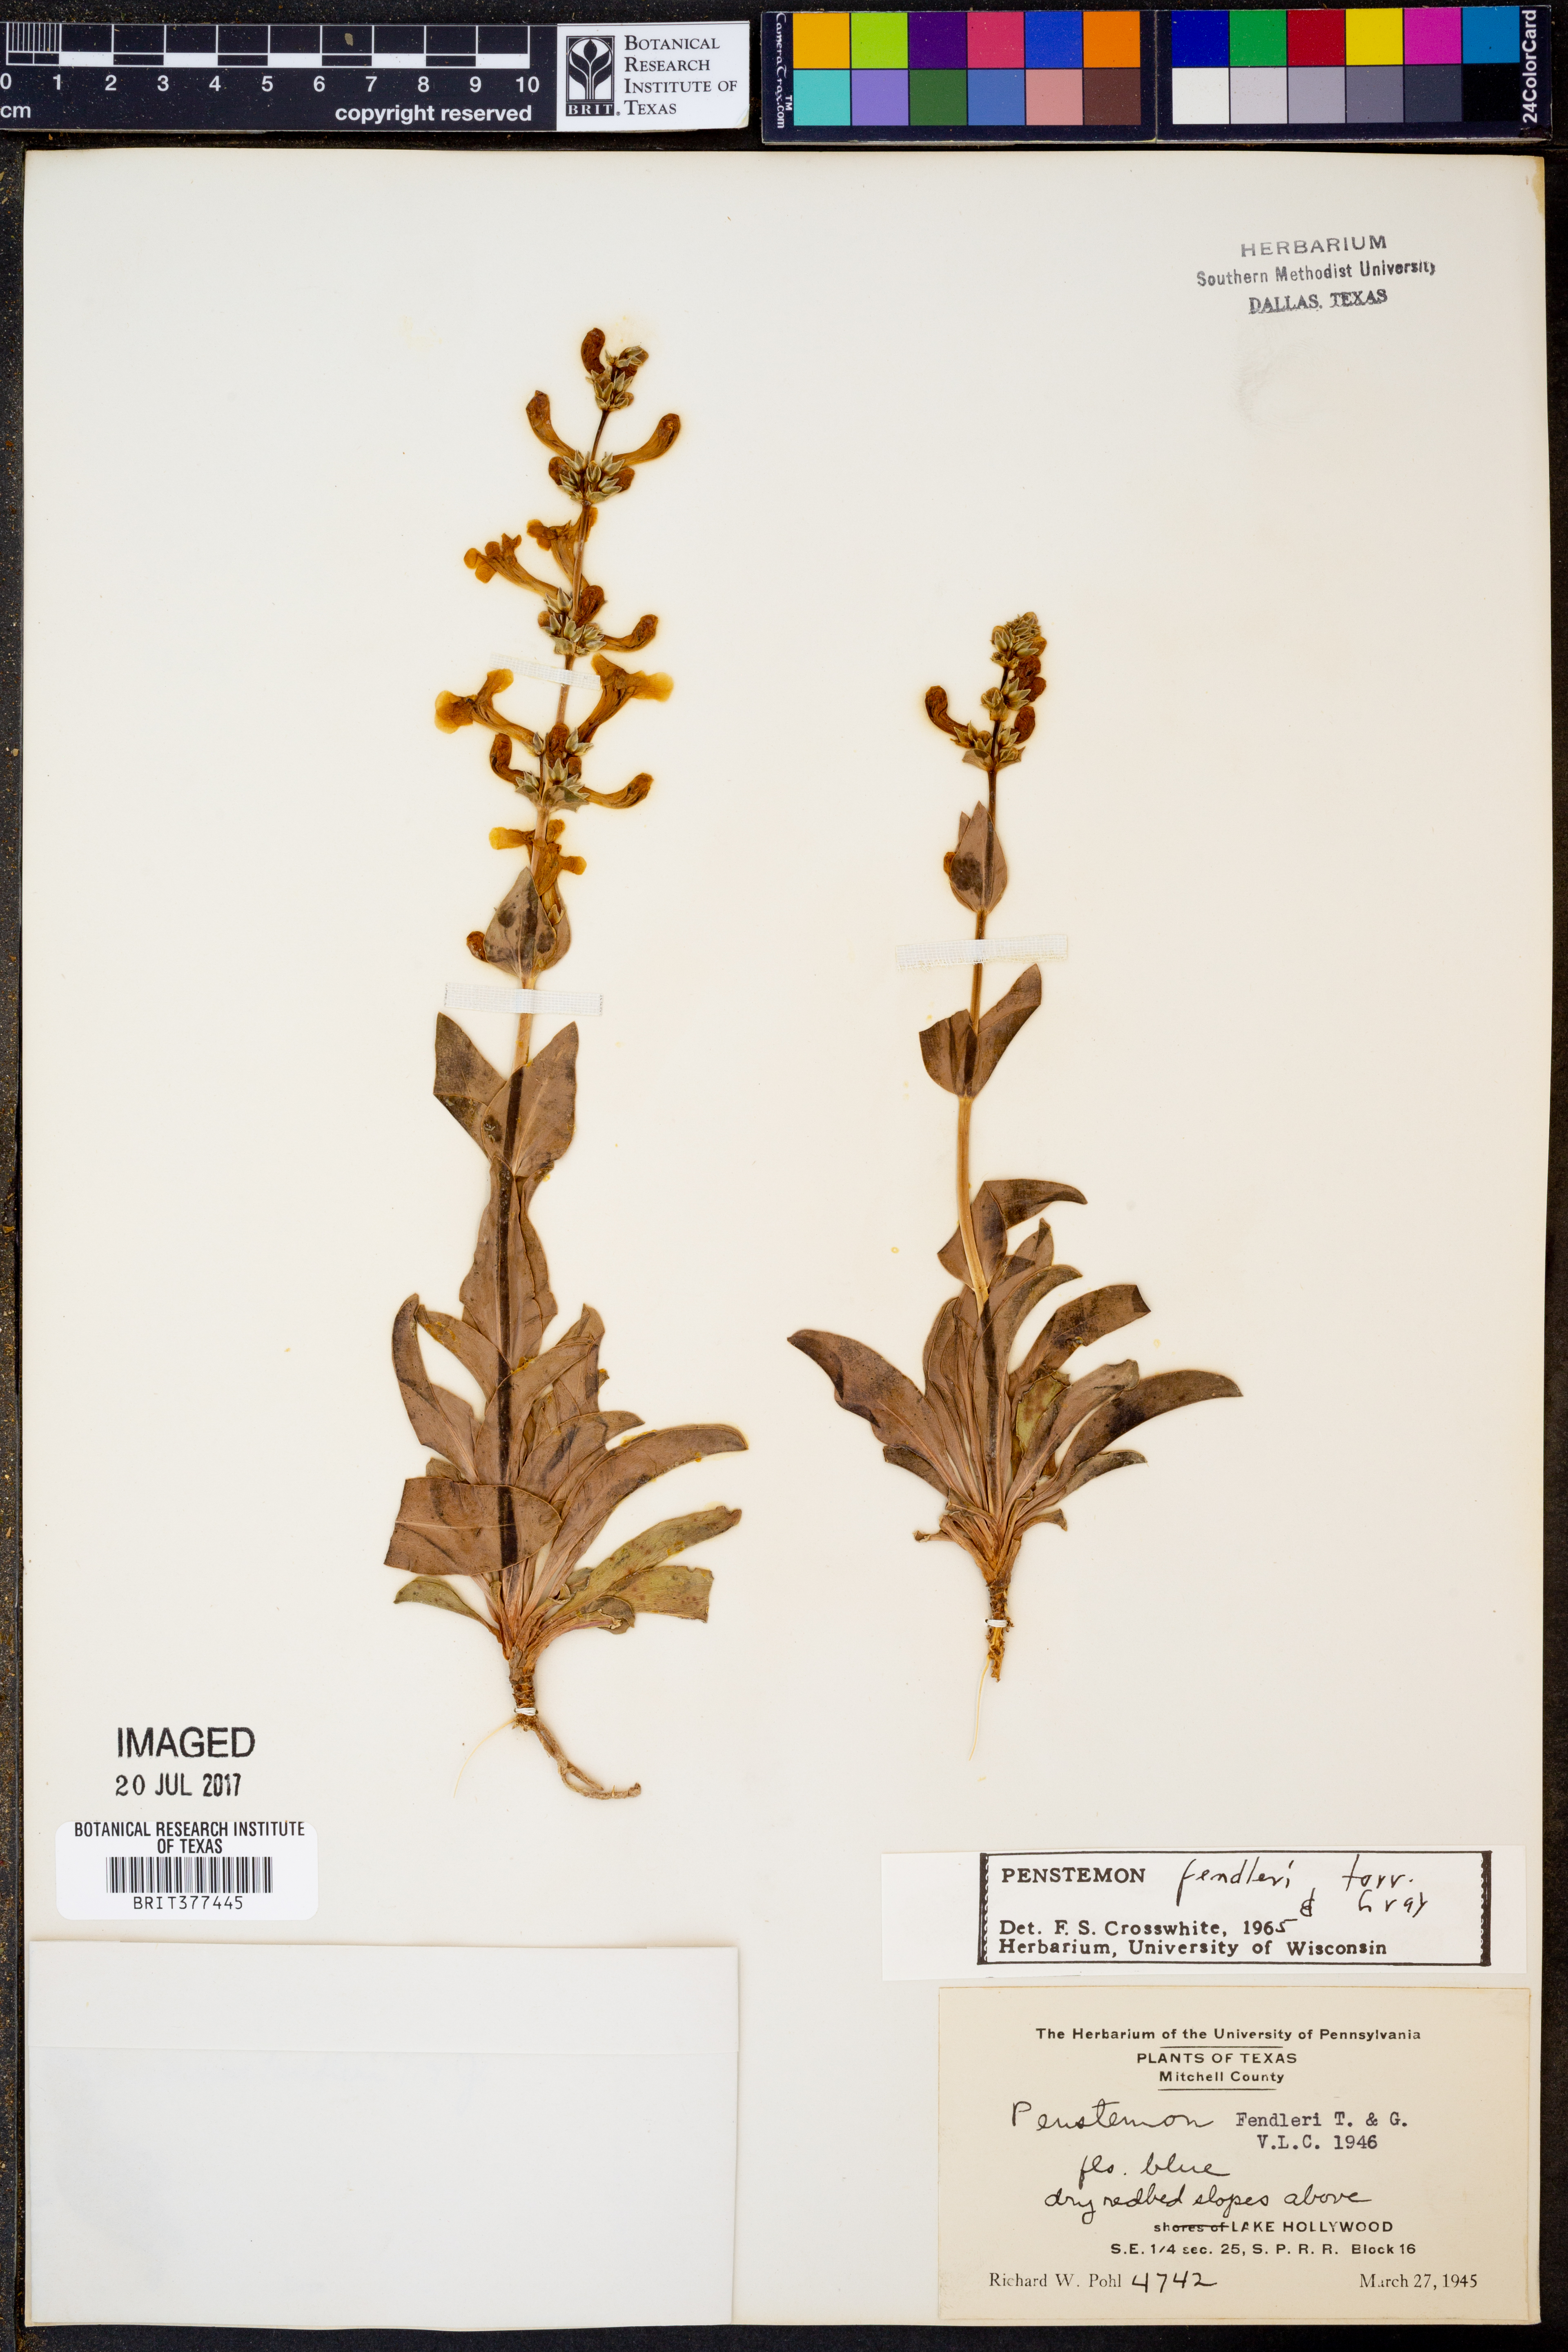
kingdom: Plantae
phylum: Tracheophyta
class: Magnoliopsida
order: Lamiales
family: Plantaginaceae
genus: Penstemon
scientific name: Penstemon fendleri
